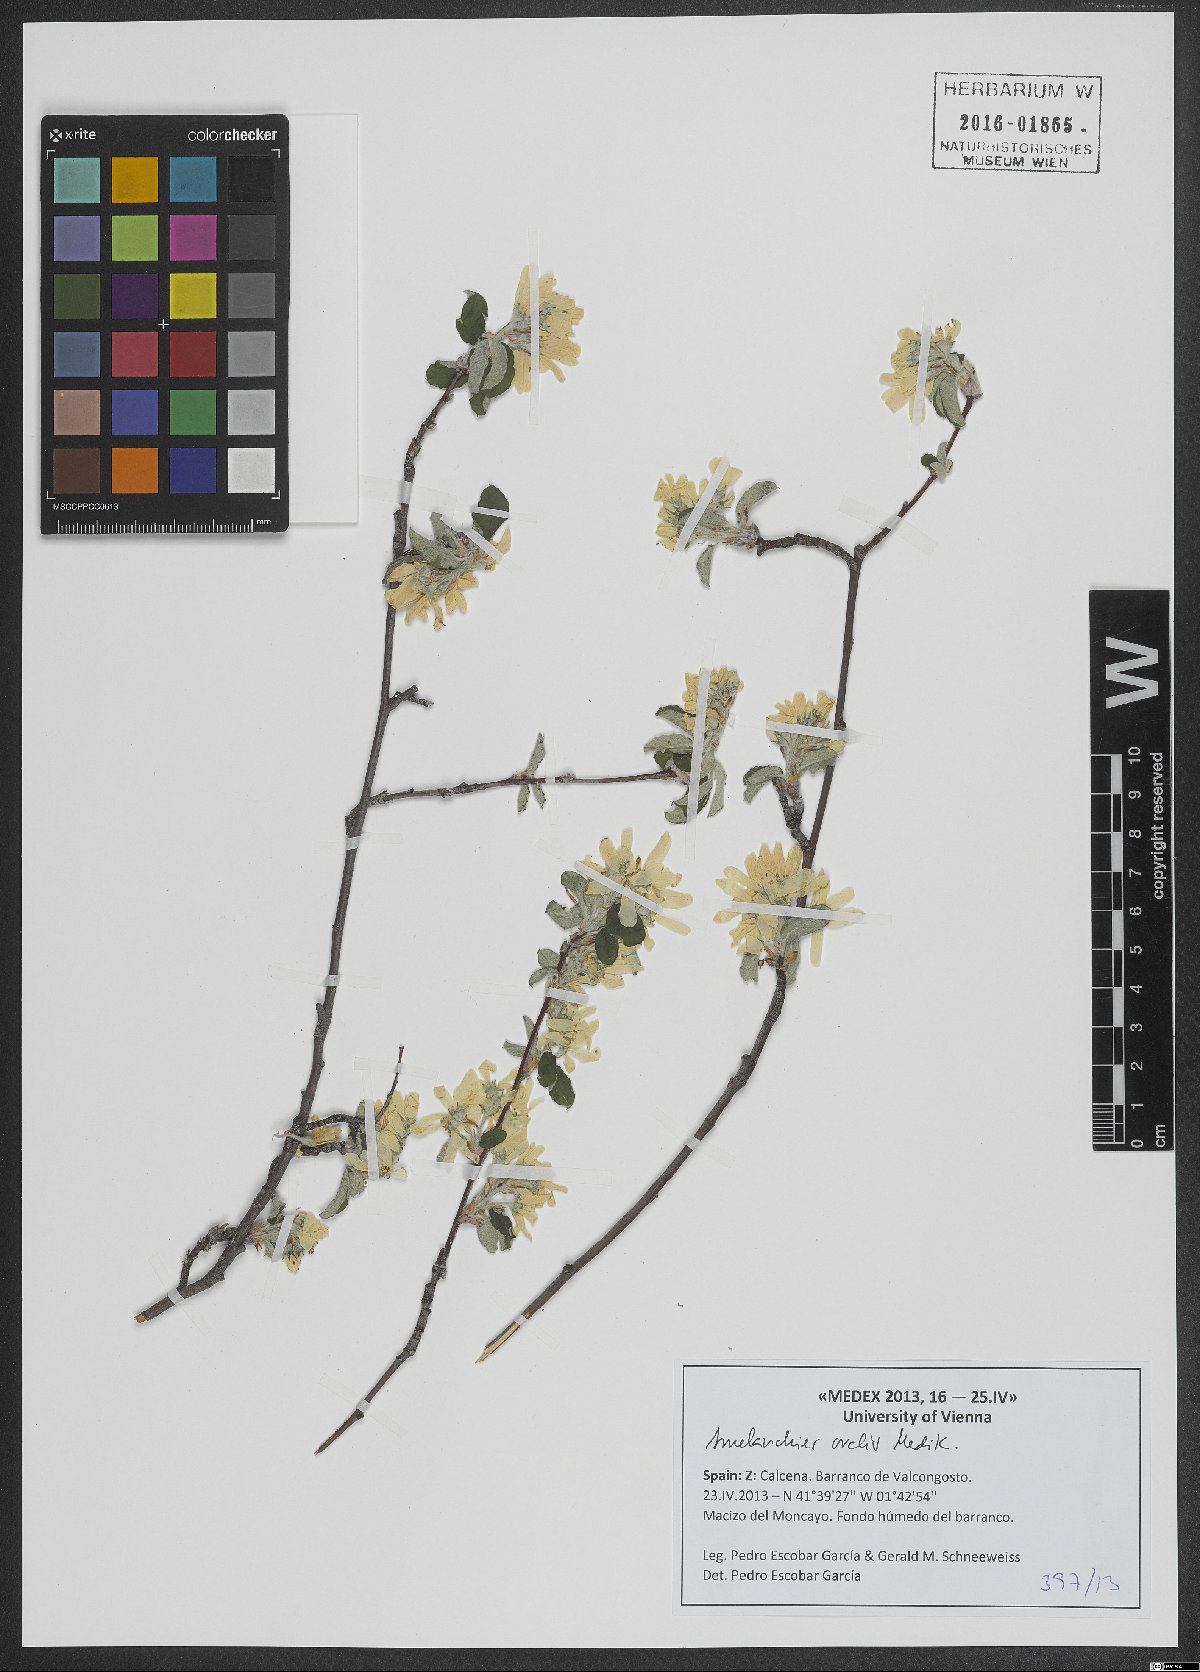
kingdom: Plantae
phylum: Tracheophyta
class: Magnoliopsida
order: Rosales
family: Rosaceae
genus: Amelanchier
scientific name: Amelanchier ovalis
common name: Serviceberry
